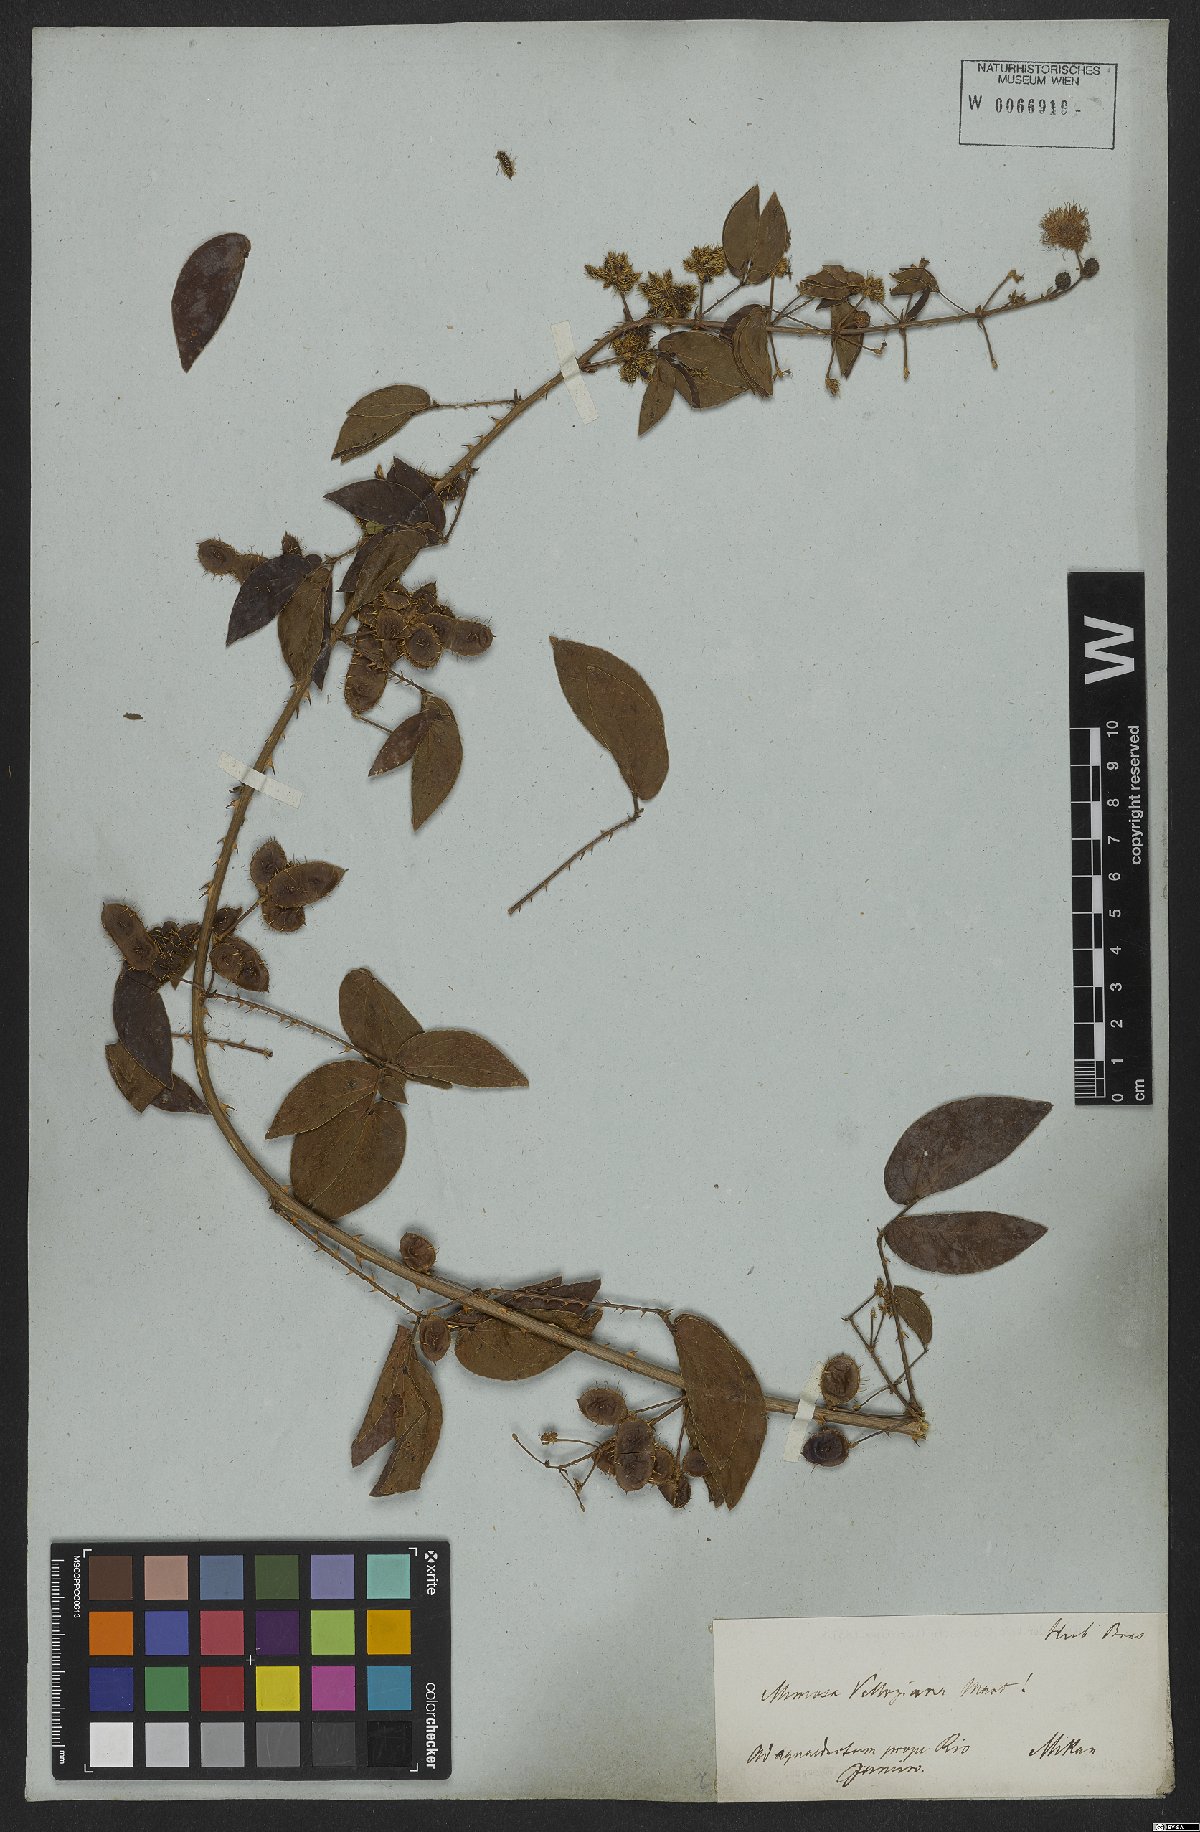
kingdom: Plantae
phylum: Tracheophyta
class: Magnoliopsida
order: Fabales
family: Fabaceae
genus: Mimosa
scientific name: Mimosa velloziana
